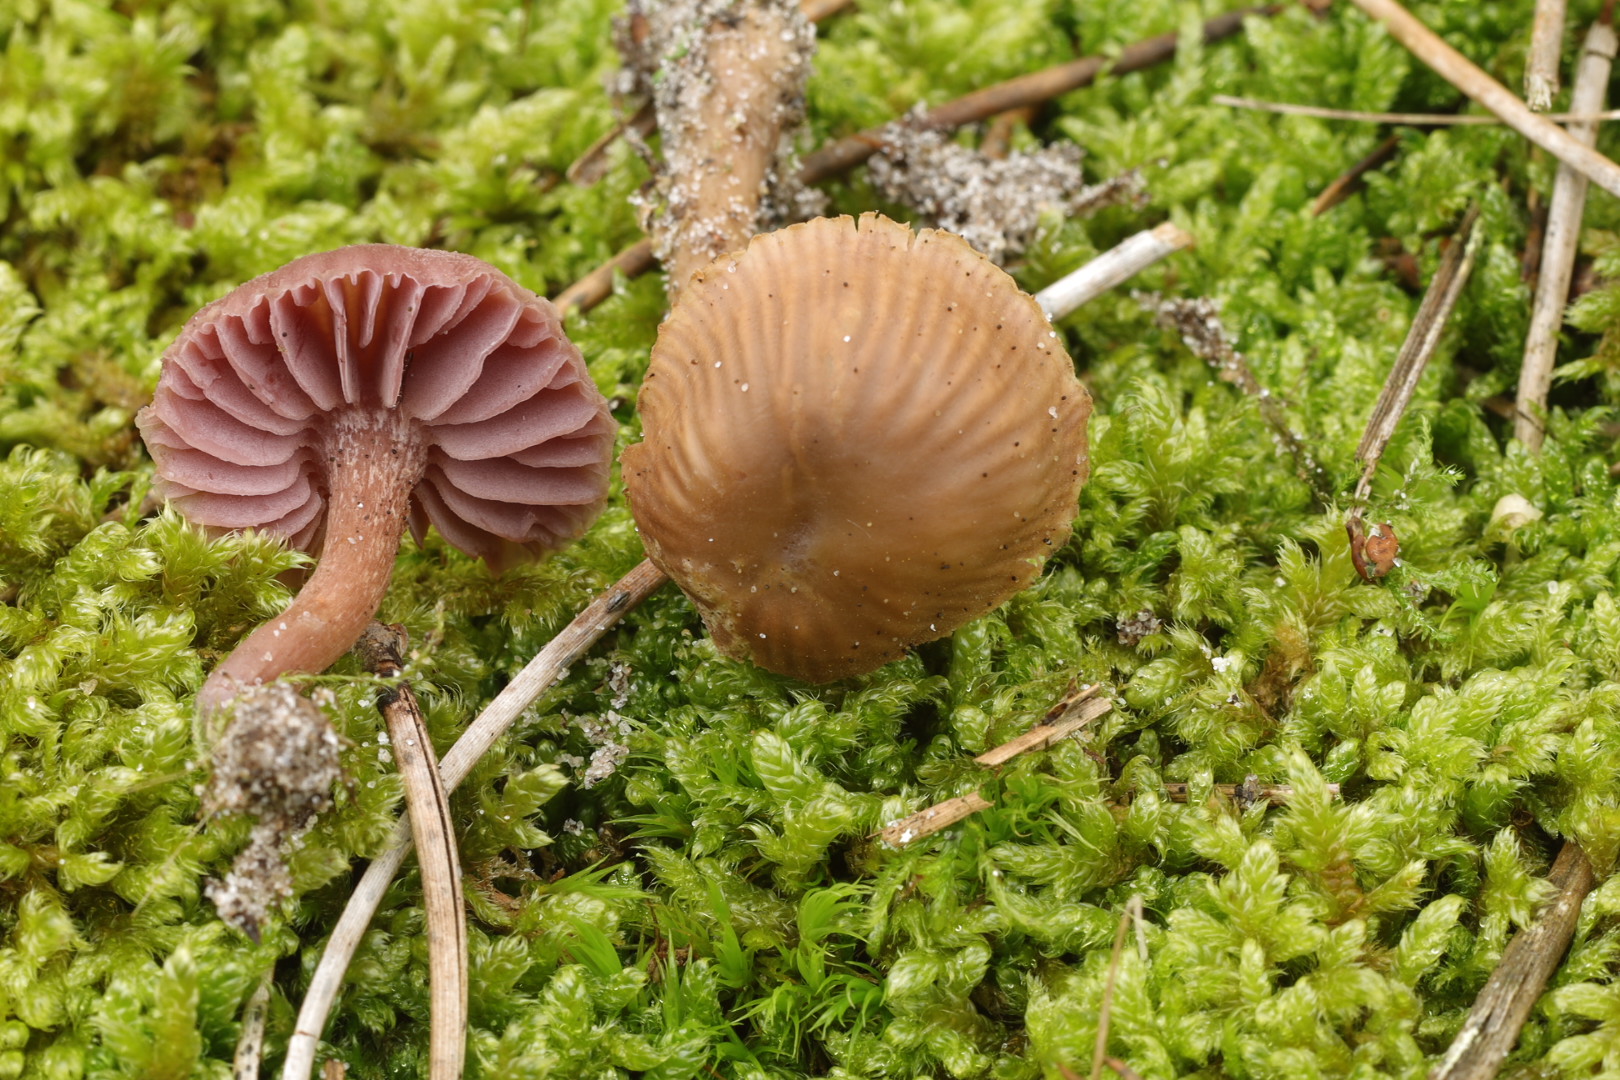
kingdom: Fungi
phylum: Basidiomycota
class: Agaricomycetes
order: Agaricales
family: Hydnangiaceae
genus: Laccaria
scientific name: Laccaria amethystina
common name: violet ametysthat
